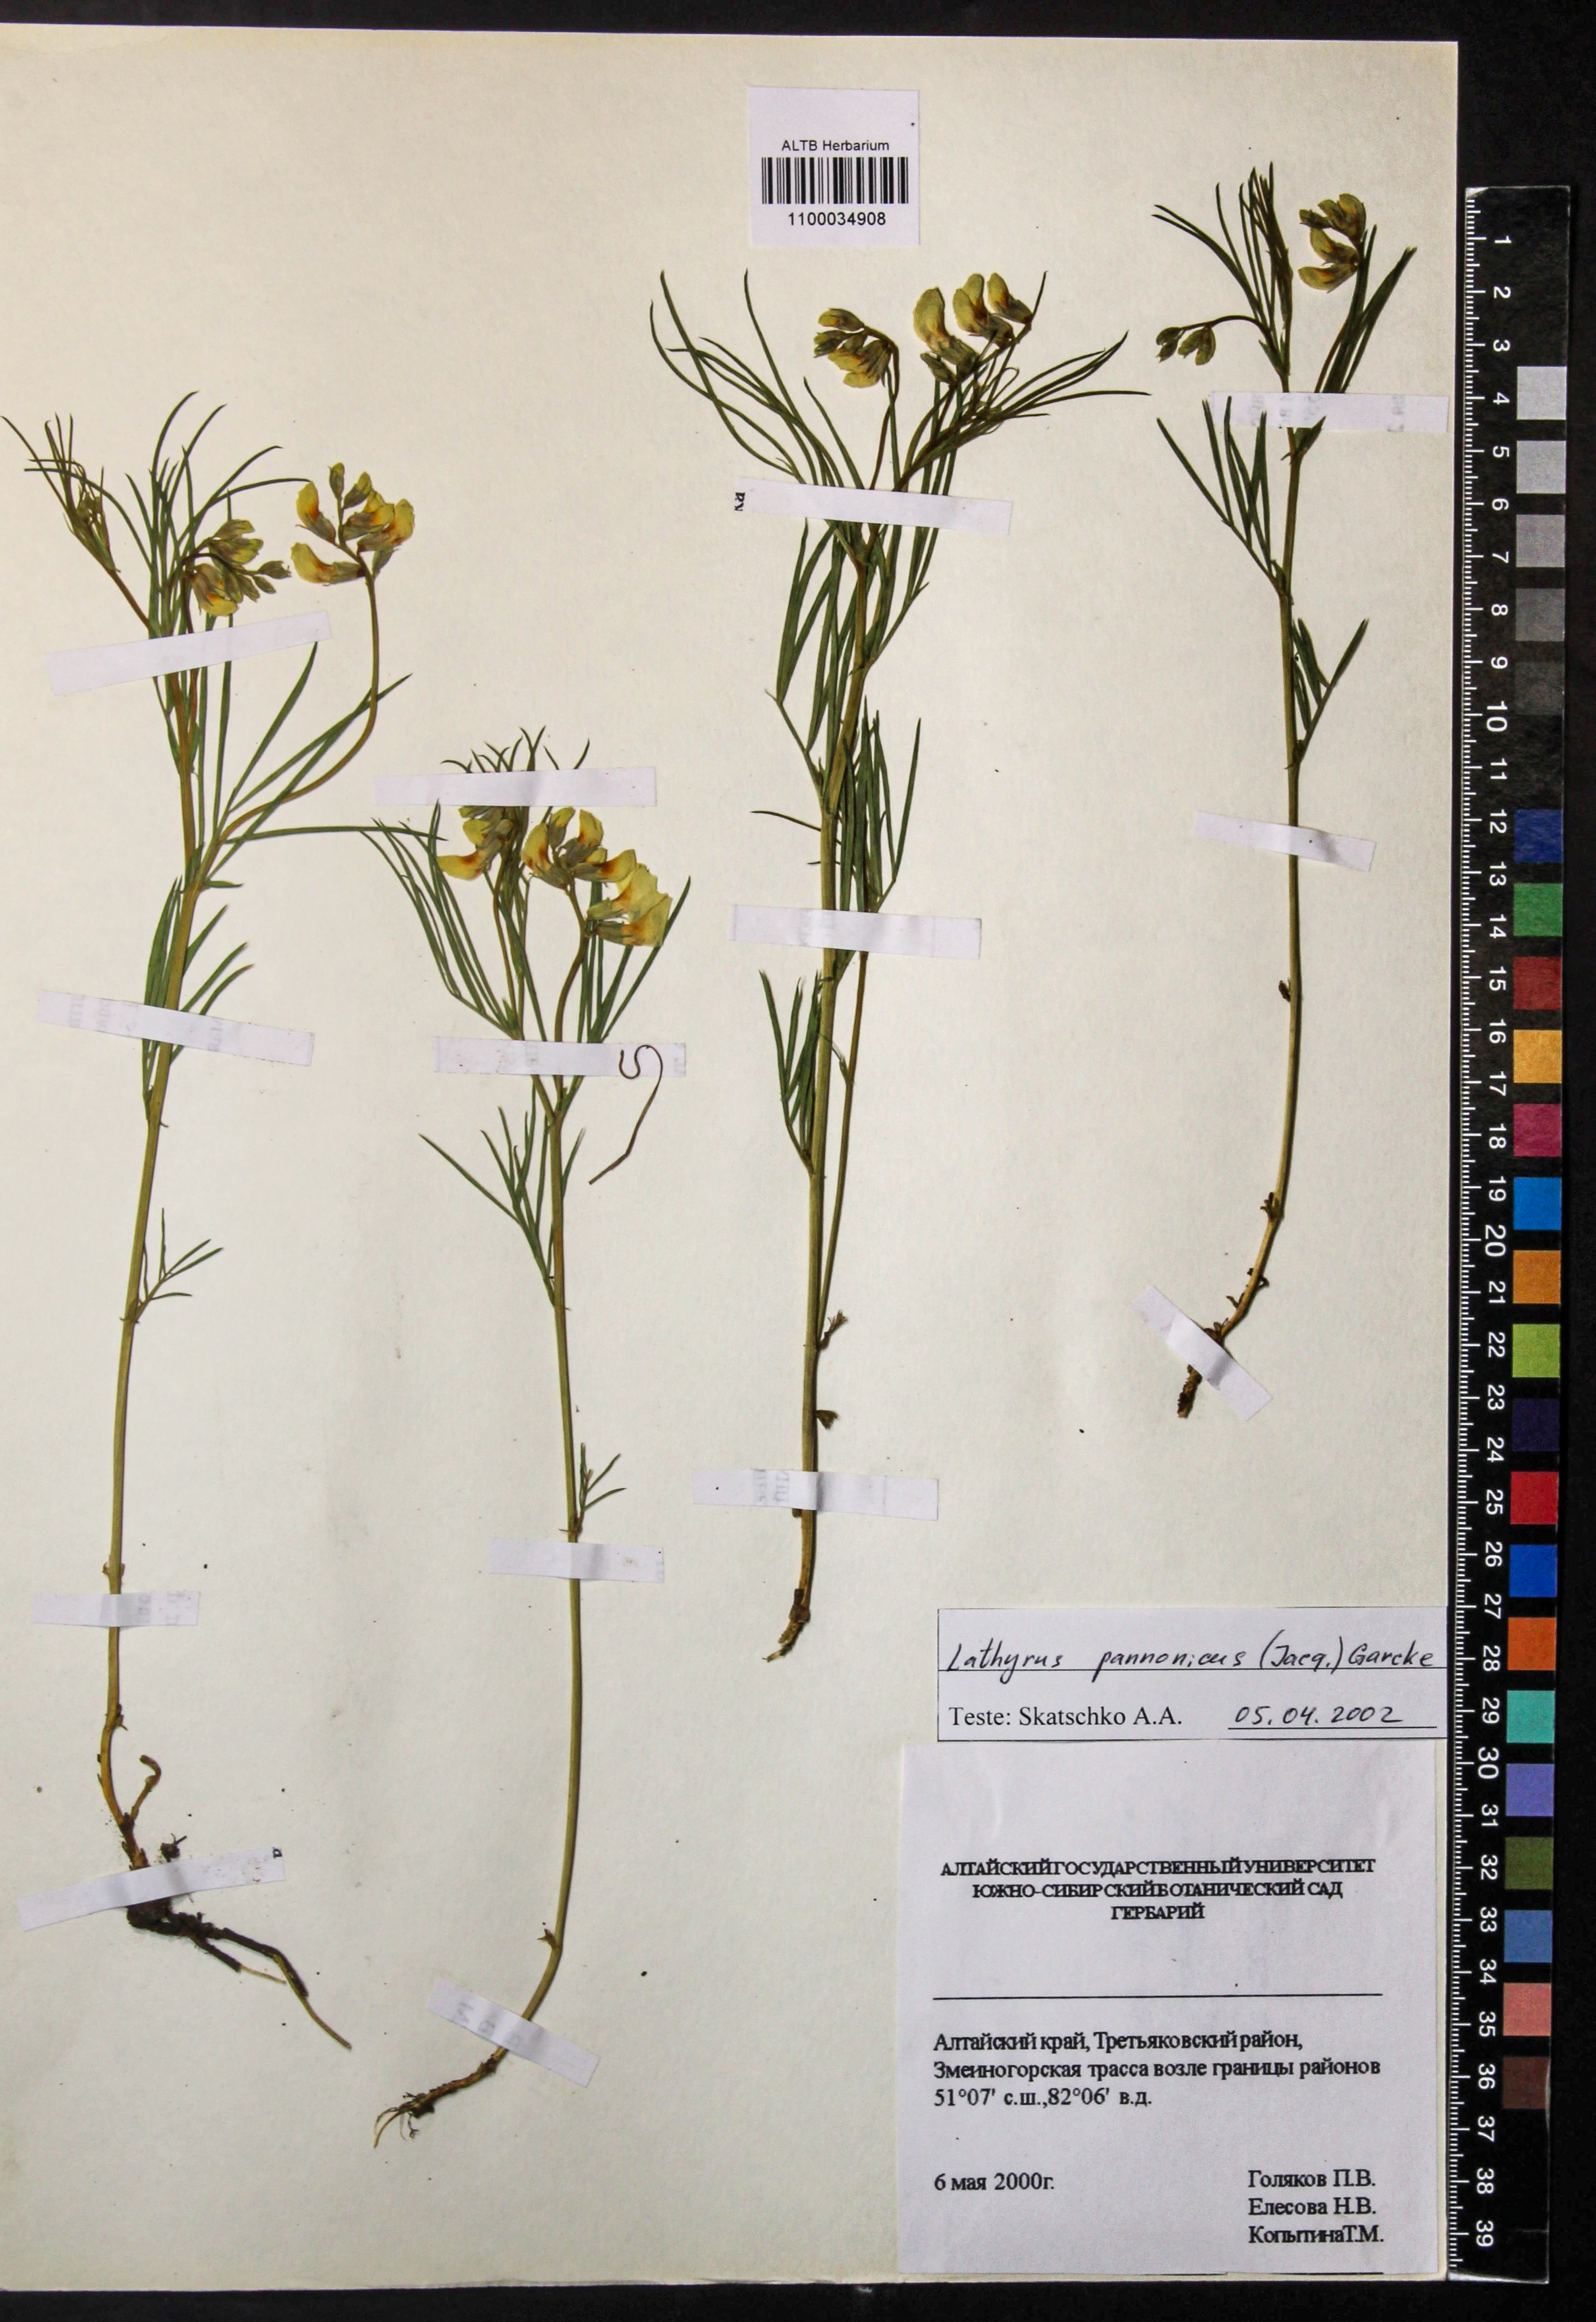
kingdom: Plantae
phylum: Tracheophyta
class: Magnoliopsida
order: Fabales
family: Fabaceae
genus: Lathyrus
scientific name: Lathyrus pannonicus
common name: Pea
